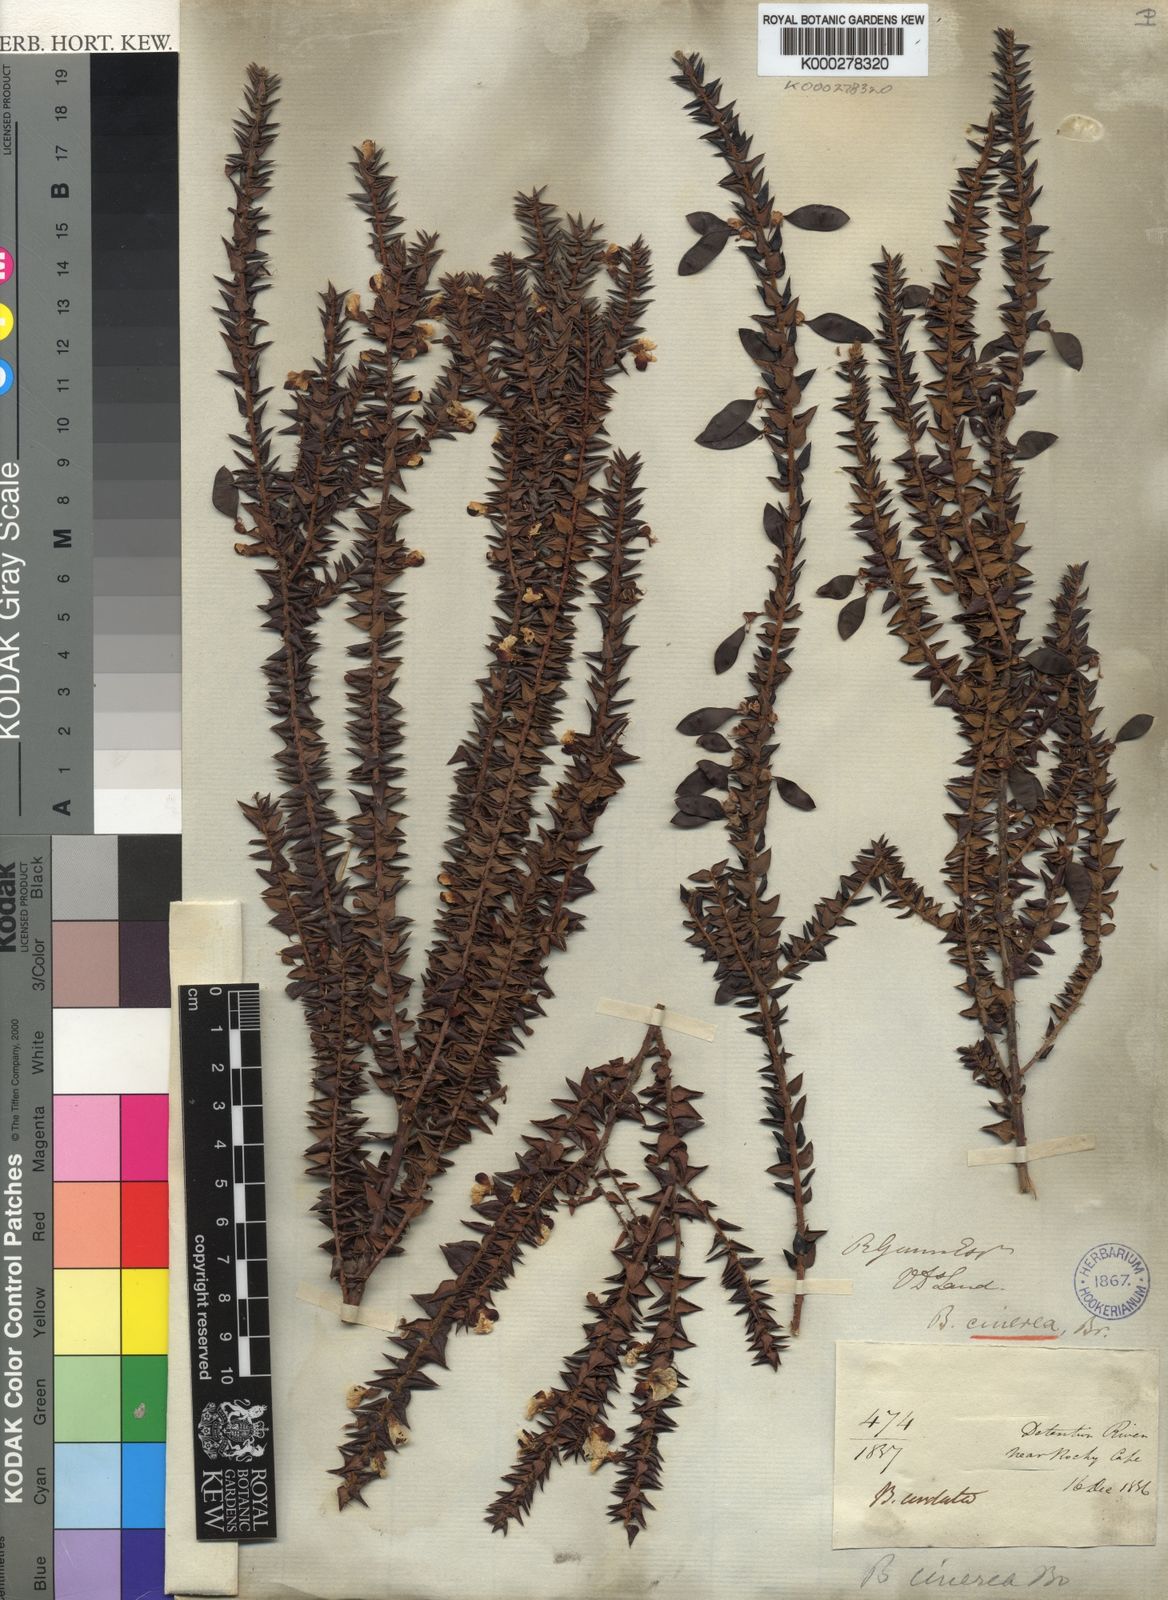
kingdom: Plantae
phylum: Tracheophyta
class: Magnoliopsida
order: Fabales
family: Fabaceae
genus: Bossiaea
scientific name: Bossiaea cinerea
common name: Showy bossiaea
